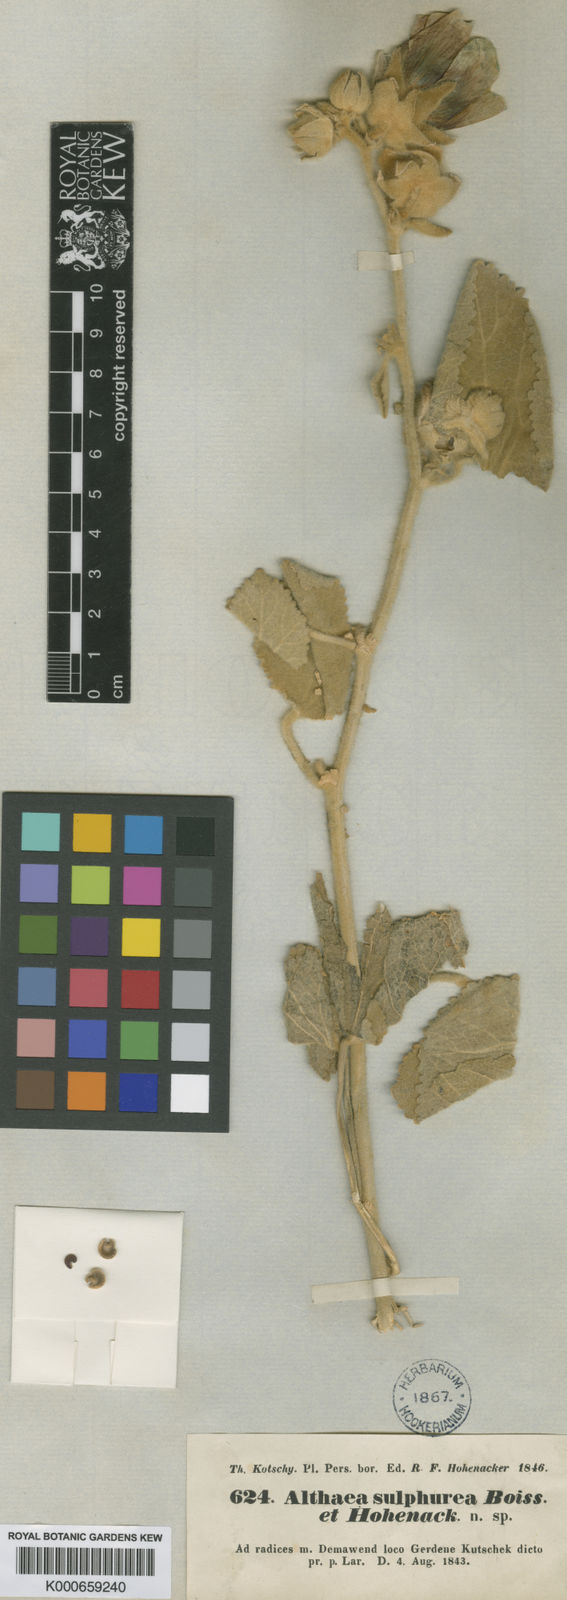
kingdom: Plantae
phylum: Tracheophyta
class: Magnoliopsida
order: Malvales
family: Malvaceae
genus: Alcea
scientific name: Alcea sulphurea
